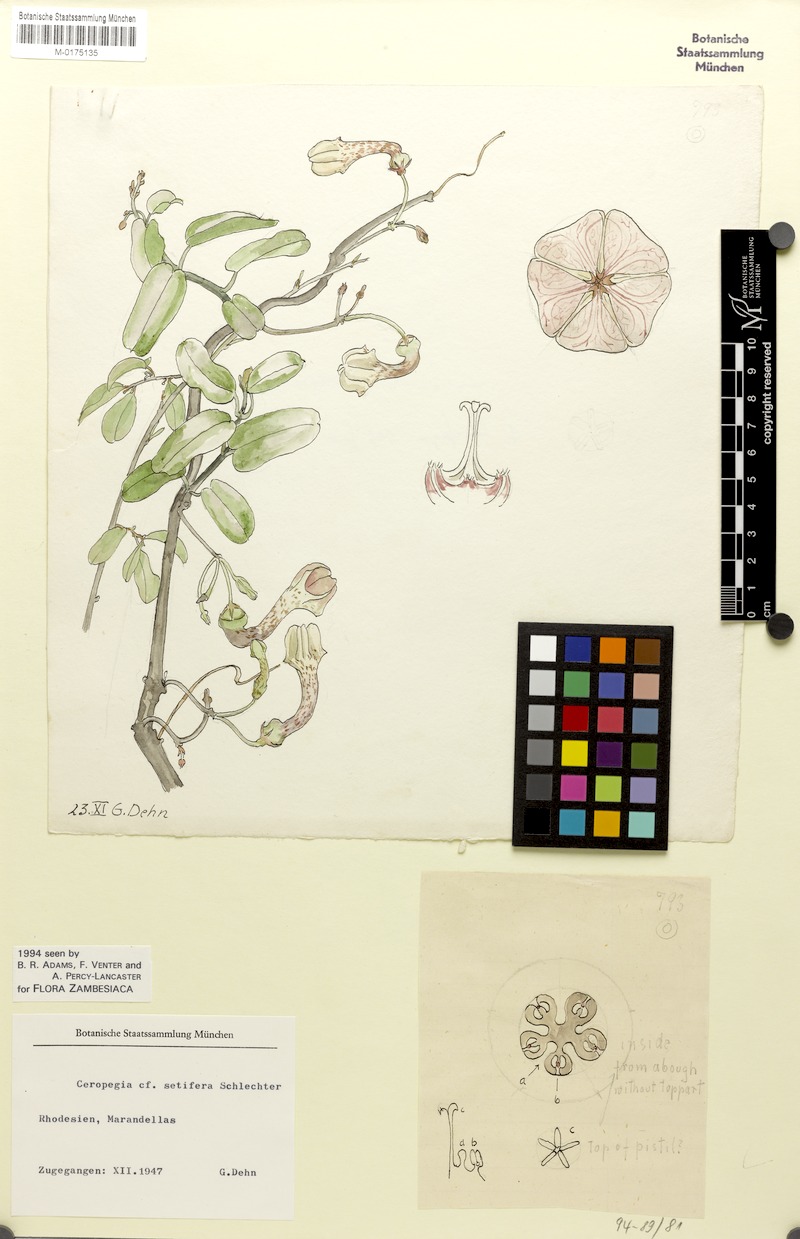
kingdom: Plantae
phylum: Tracheophyta
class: Magnoliopsida
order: Gentianales
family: Apocynaceae
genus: Ceropegia
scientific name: Ceropegia affinis
